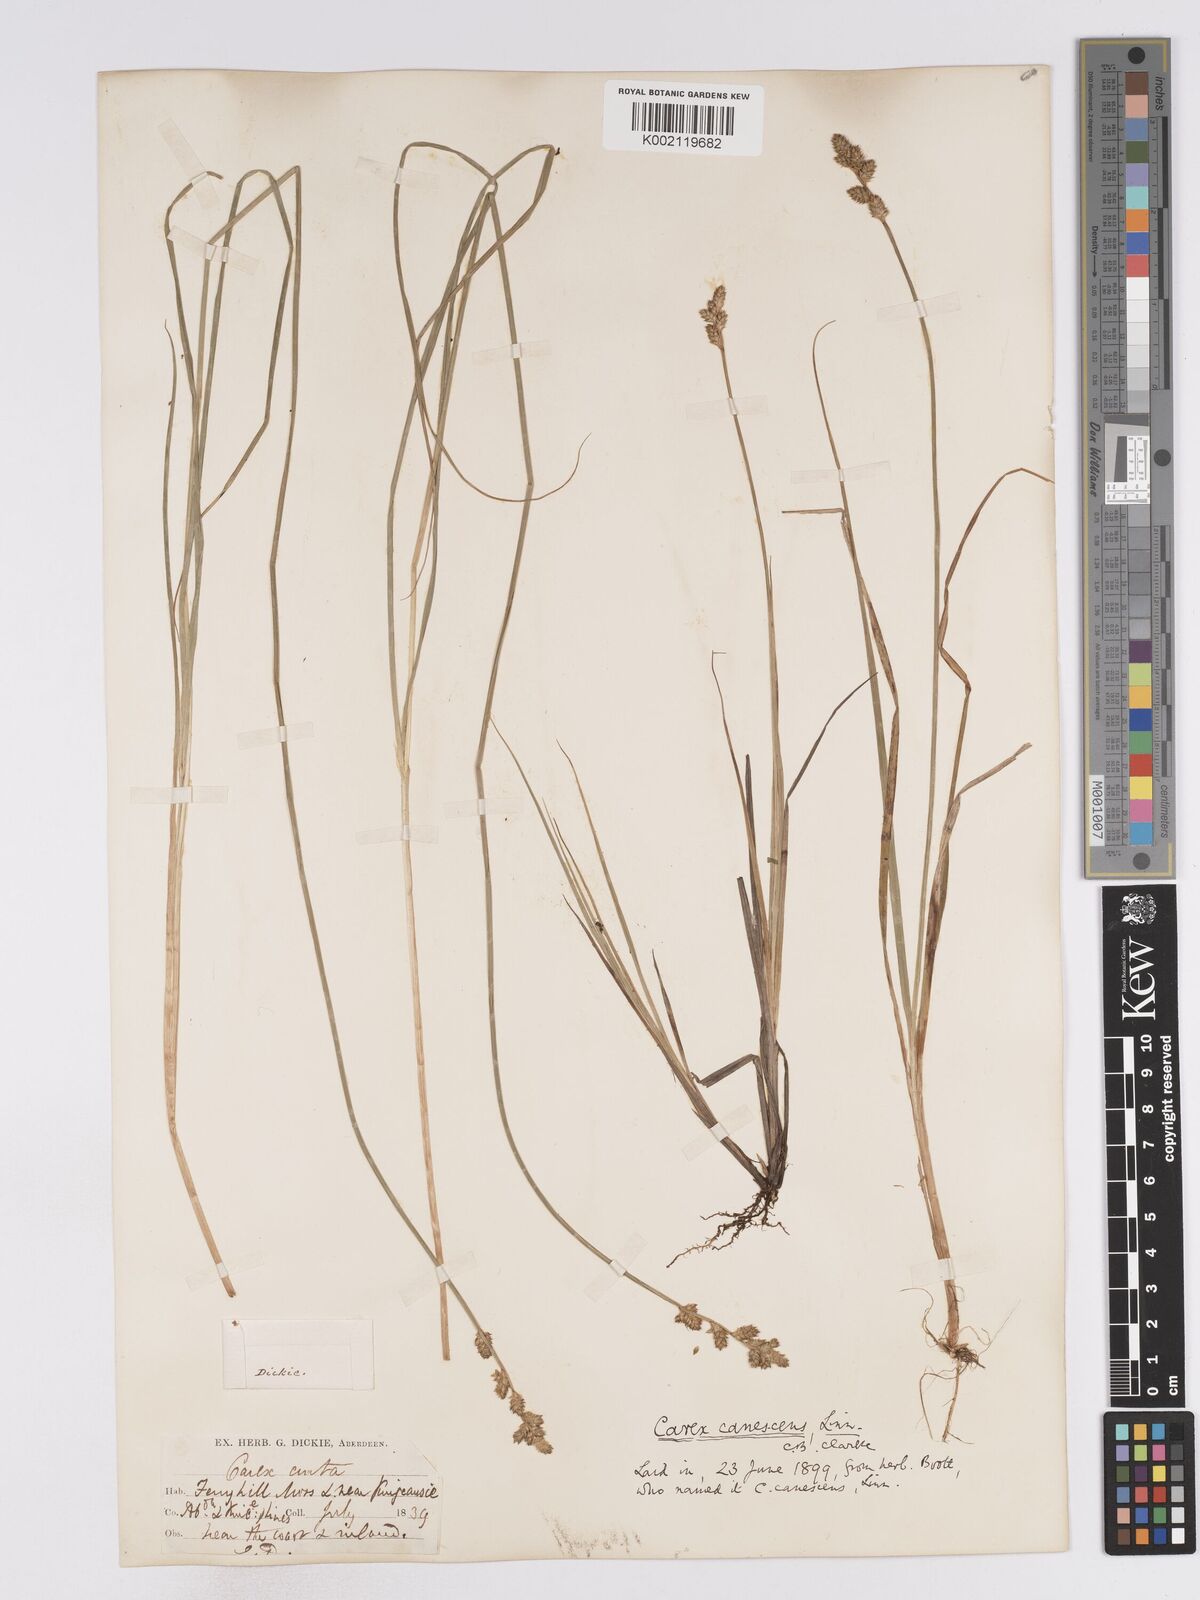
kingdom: Plantae
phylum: Tracheophyta
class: Liliopsida
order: Poales
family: Cyperaceae
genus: Carex
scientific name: Carex curta
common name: White sedge
